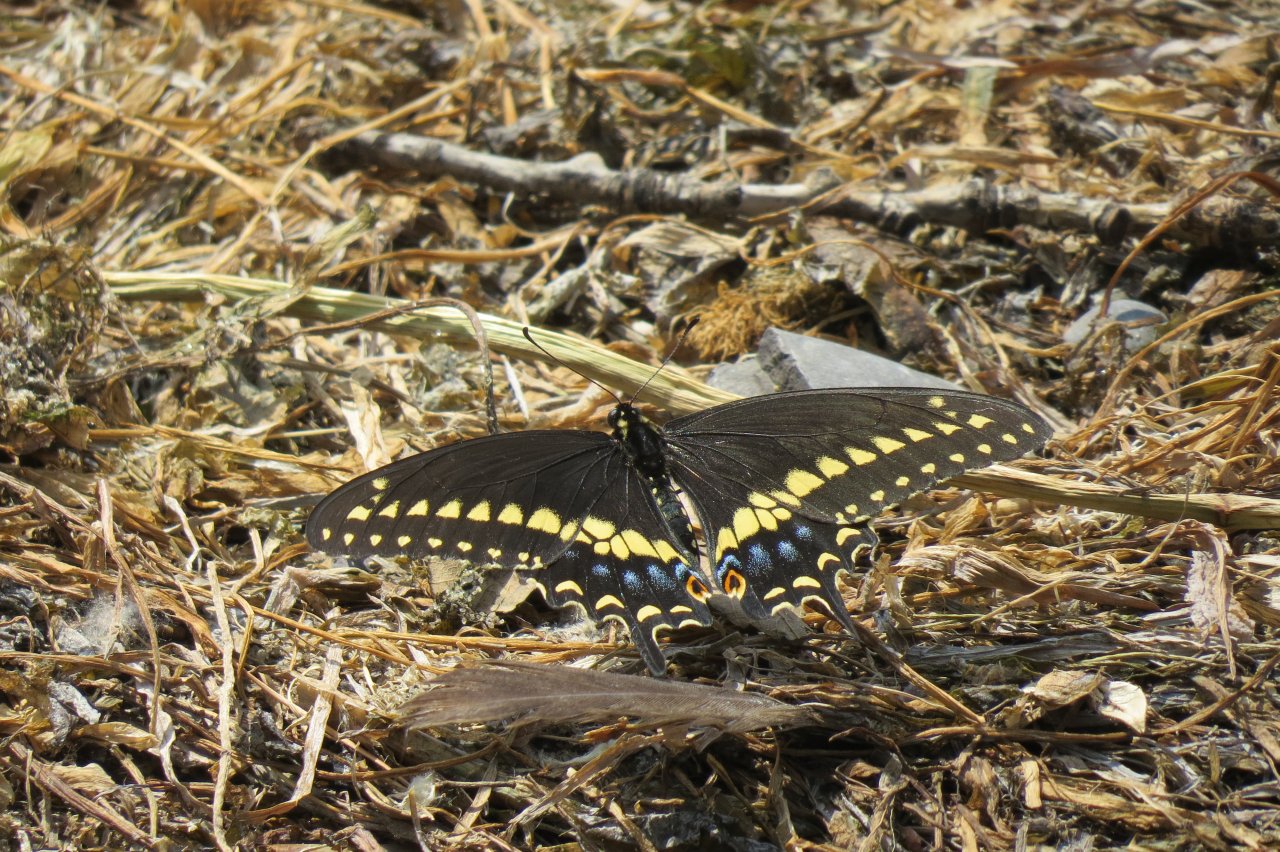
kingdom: Animalia
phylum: Arthropoda
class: Insecta
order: Lepidoptera
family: Papilionidae
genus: Papilio
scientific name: Papilio polyxenes
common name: Black Swallowtail
